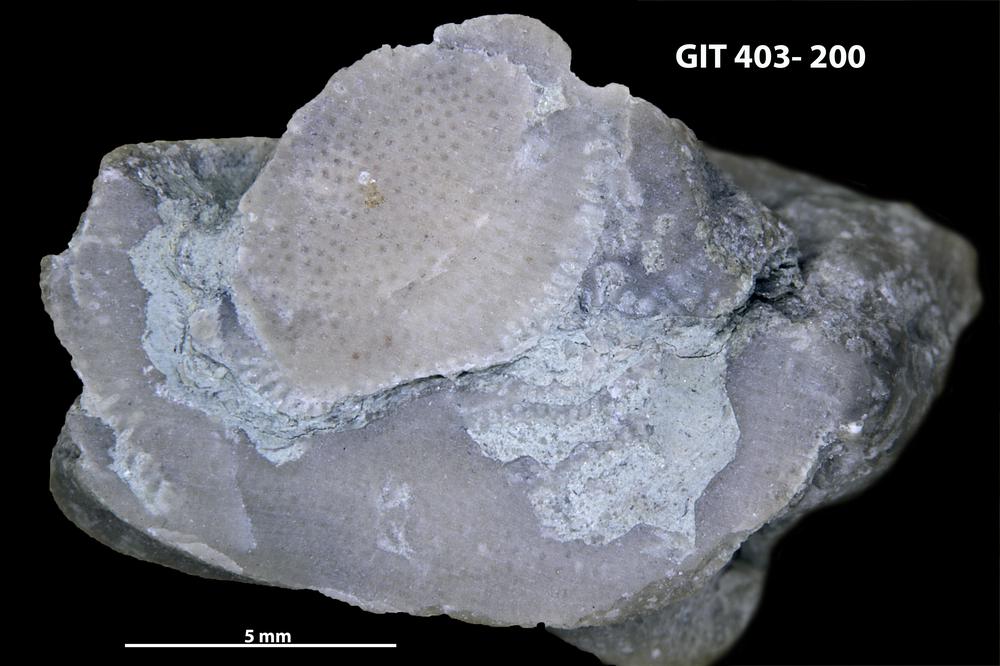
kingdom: Animalia
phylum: Bryozoa
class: Stenolaemata
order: Cystoporida
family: Fistuliporidae
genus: Fistulipora
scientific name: Fistulipora przhidolensis
